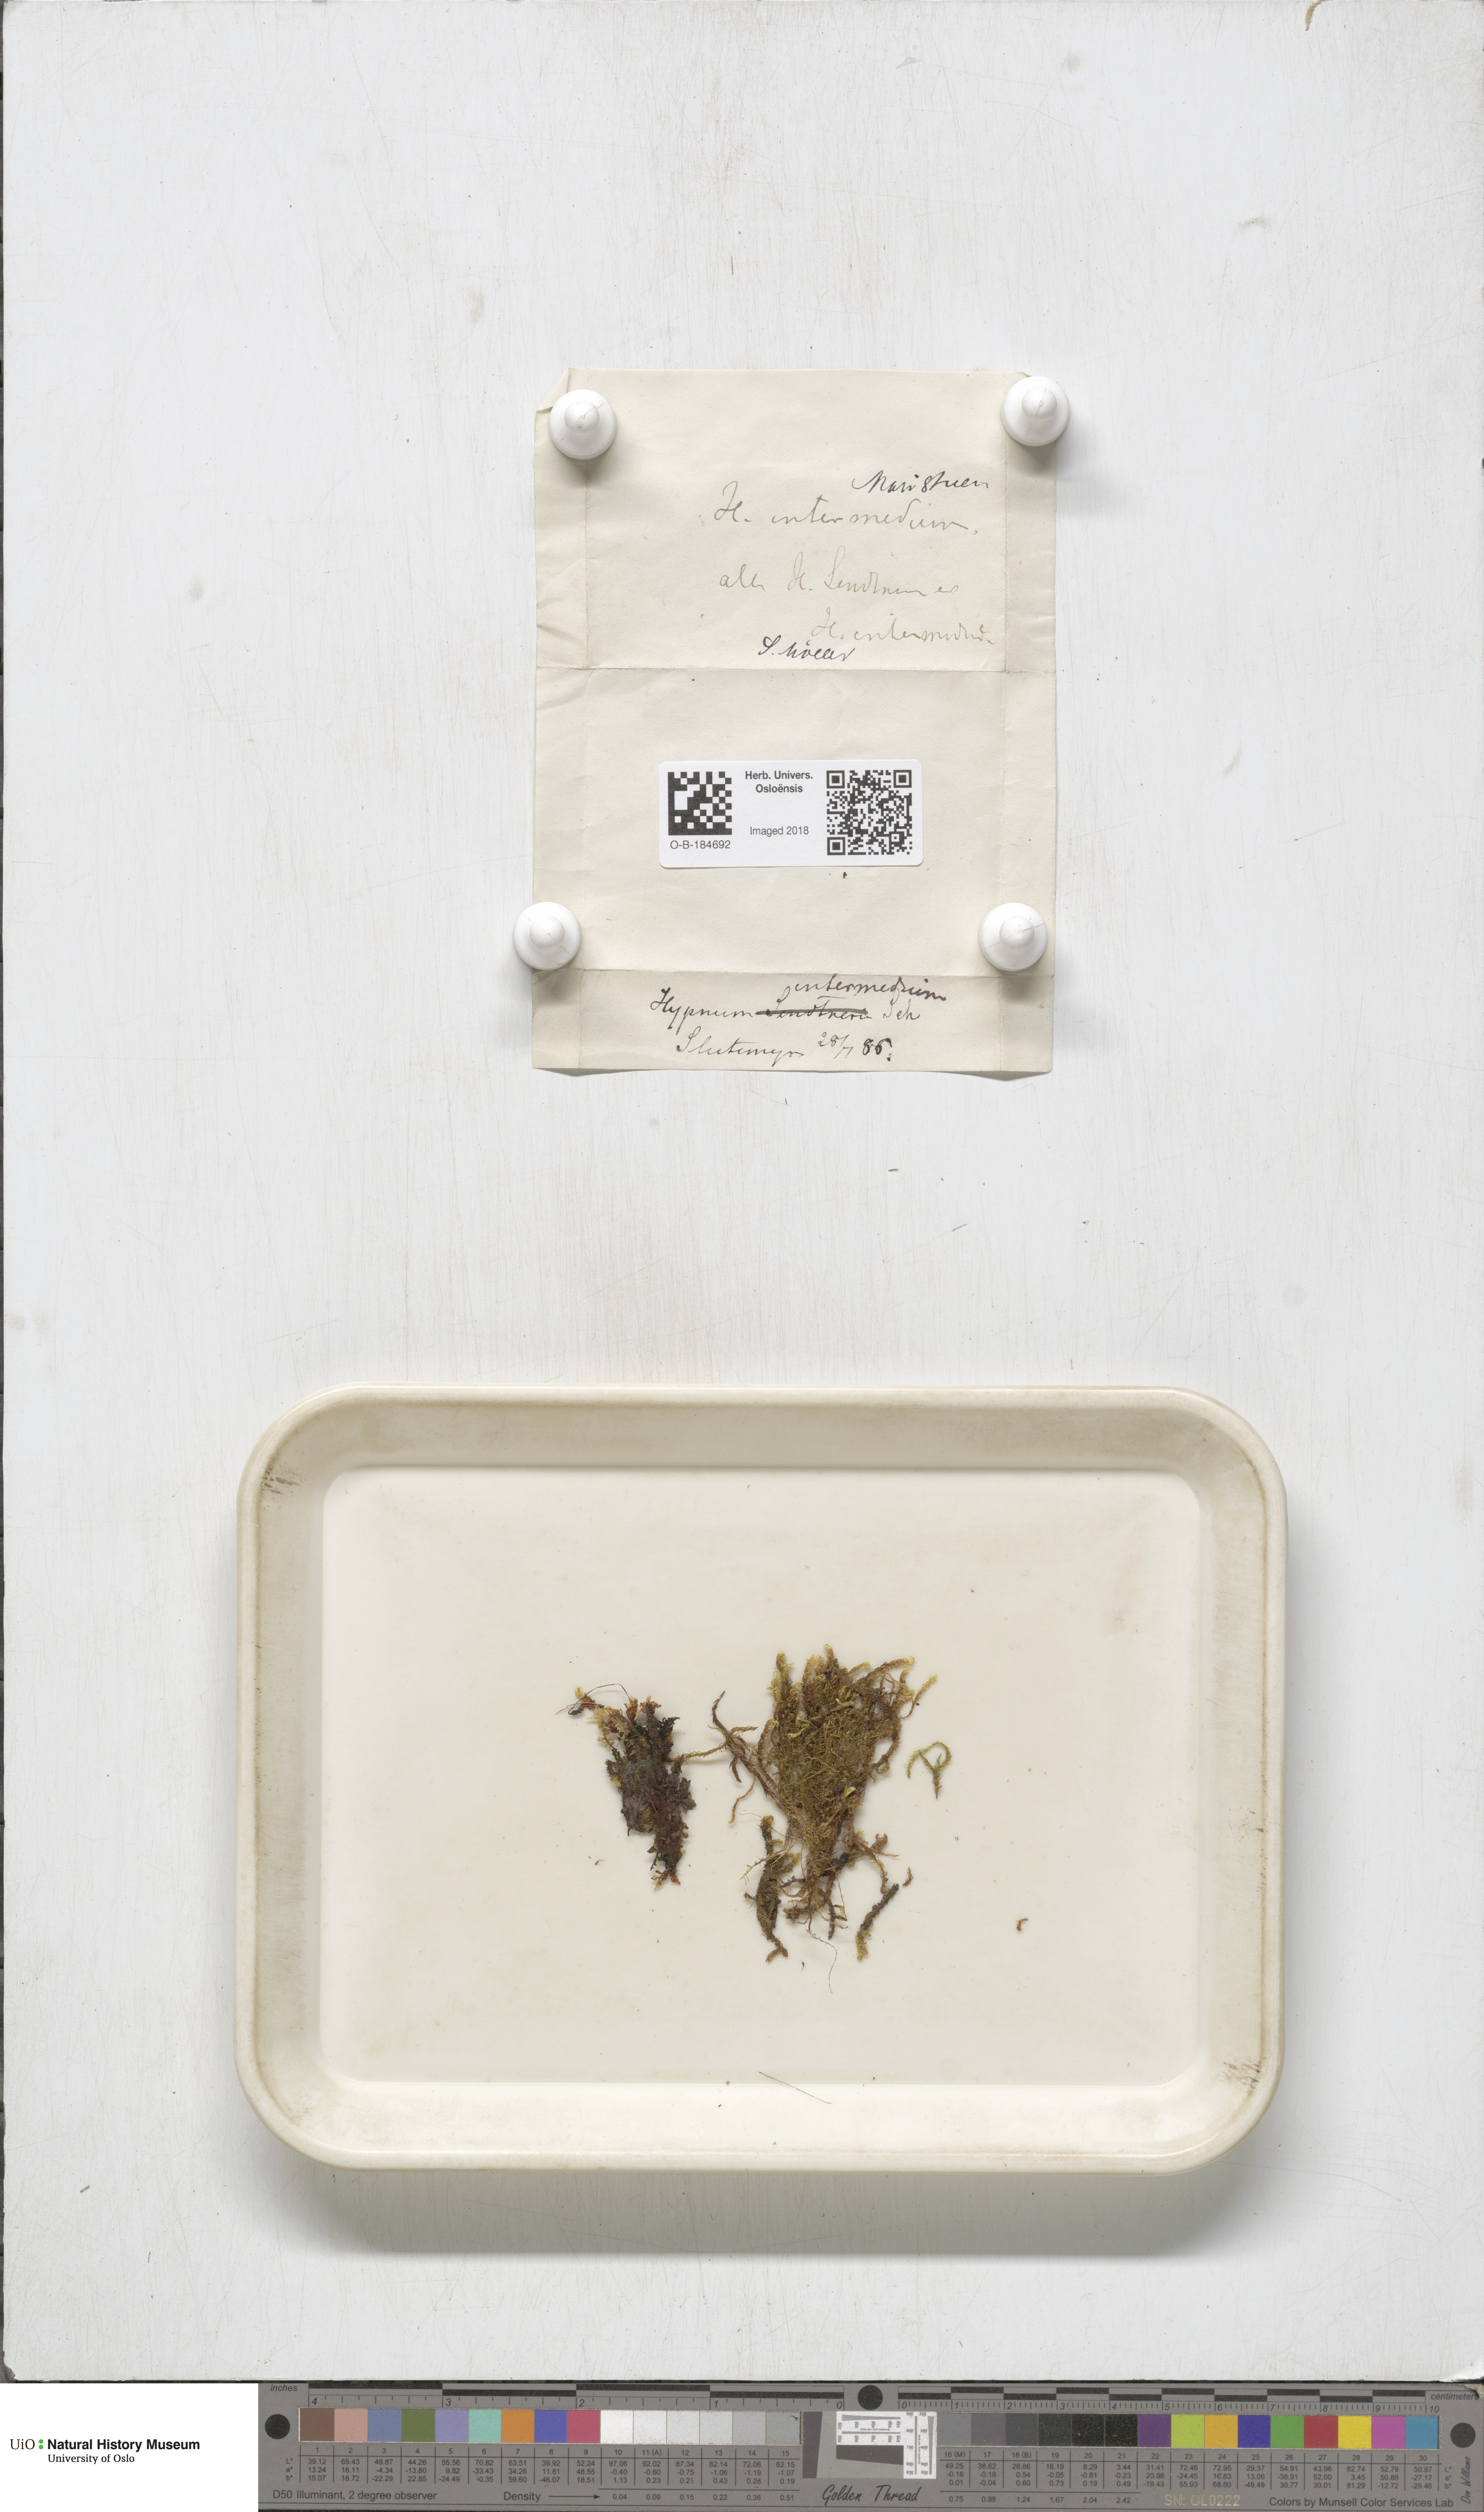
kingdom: Plantae
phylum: Bryophyta
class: Bryopsida
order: Hypnales
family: Scorpidiaceae
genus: Scorpidium
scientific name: Scorpidium cossonii
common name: Cosson's hook moss
